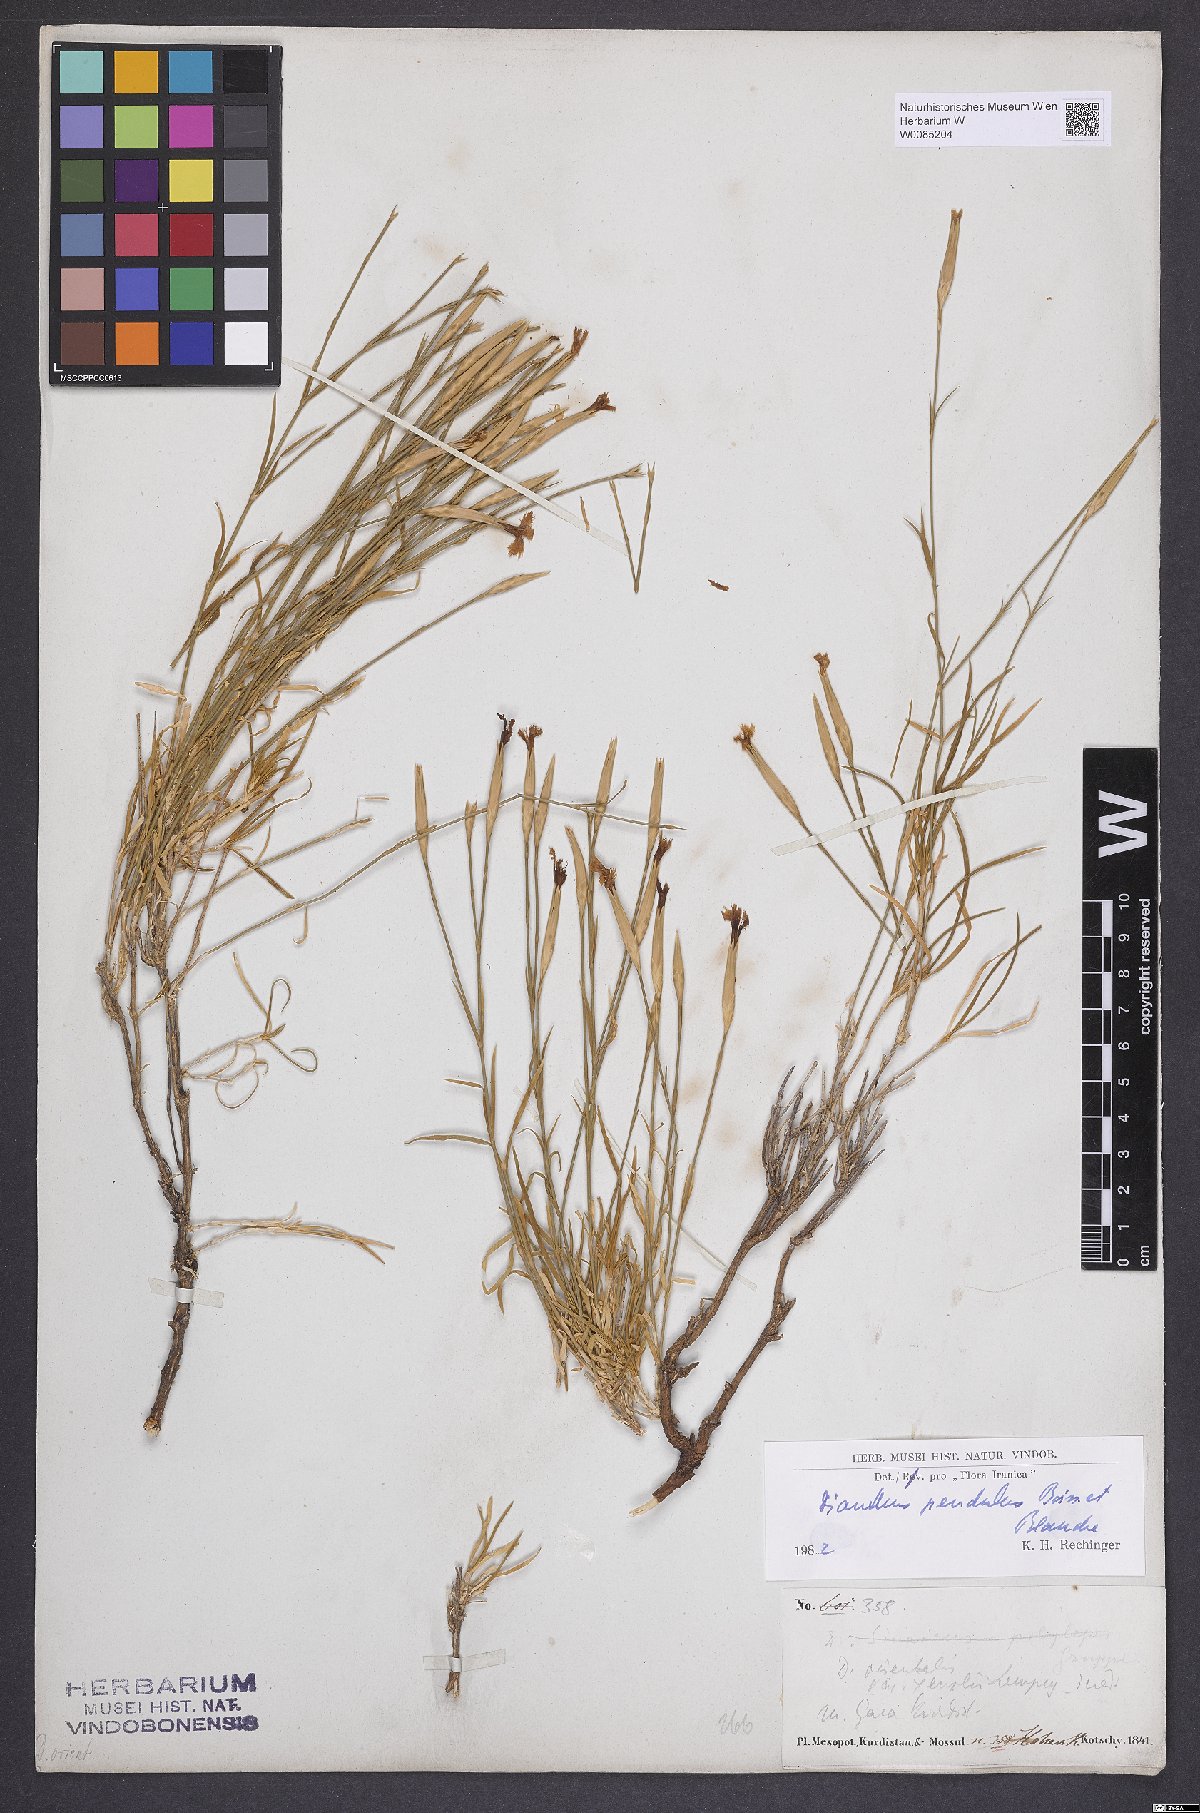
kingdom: Plantae
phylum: Tracheophyta
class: Magnoliopsida
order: Caryophyllales
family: Caryophyllaceae
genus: Dianthus
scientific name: Dianthus pendulus
